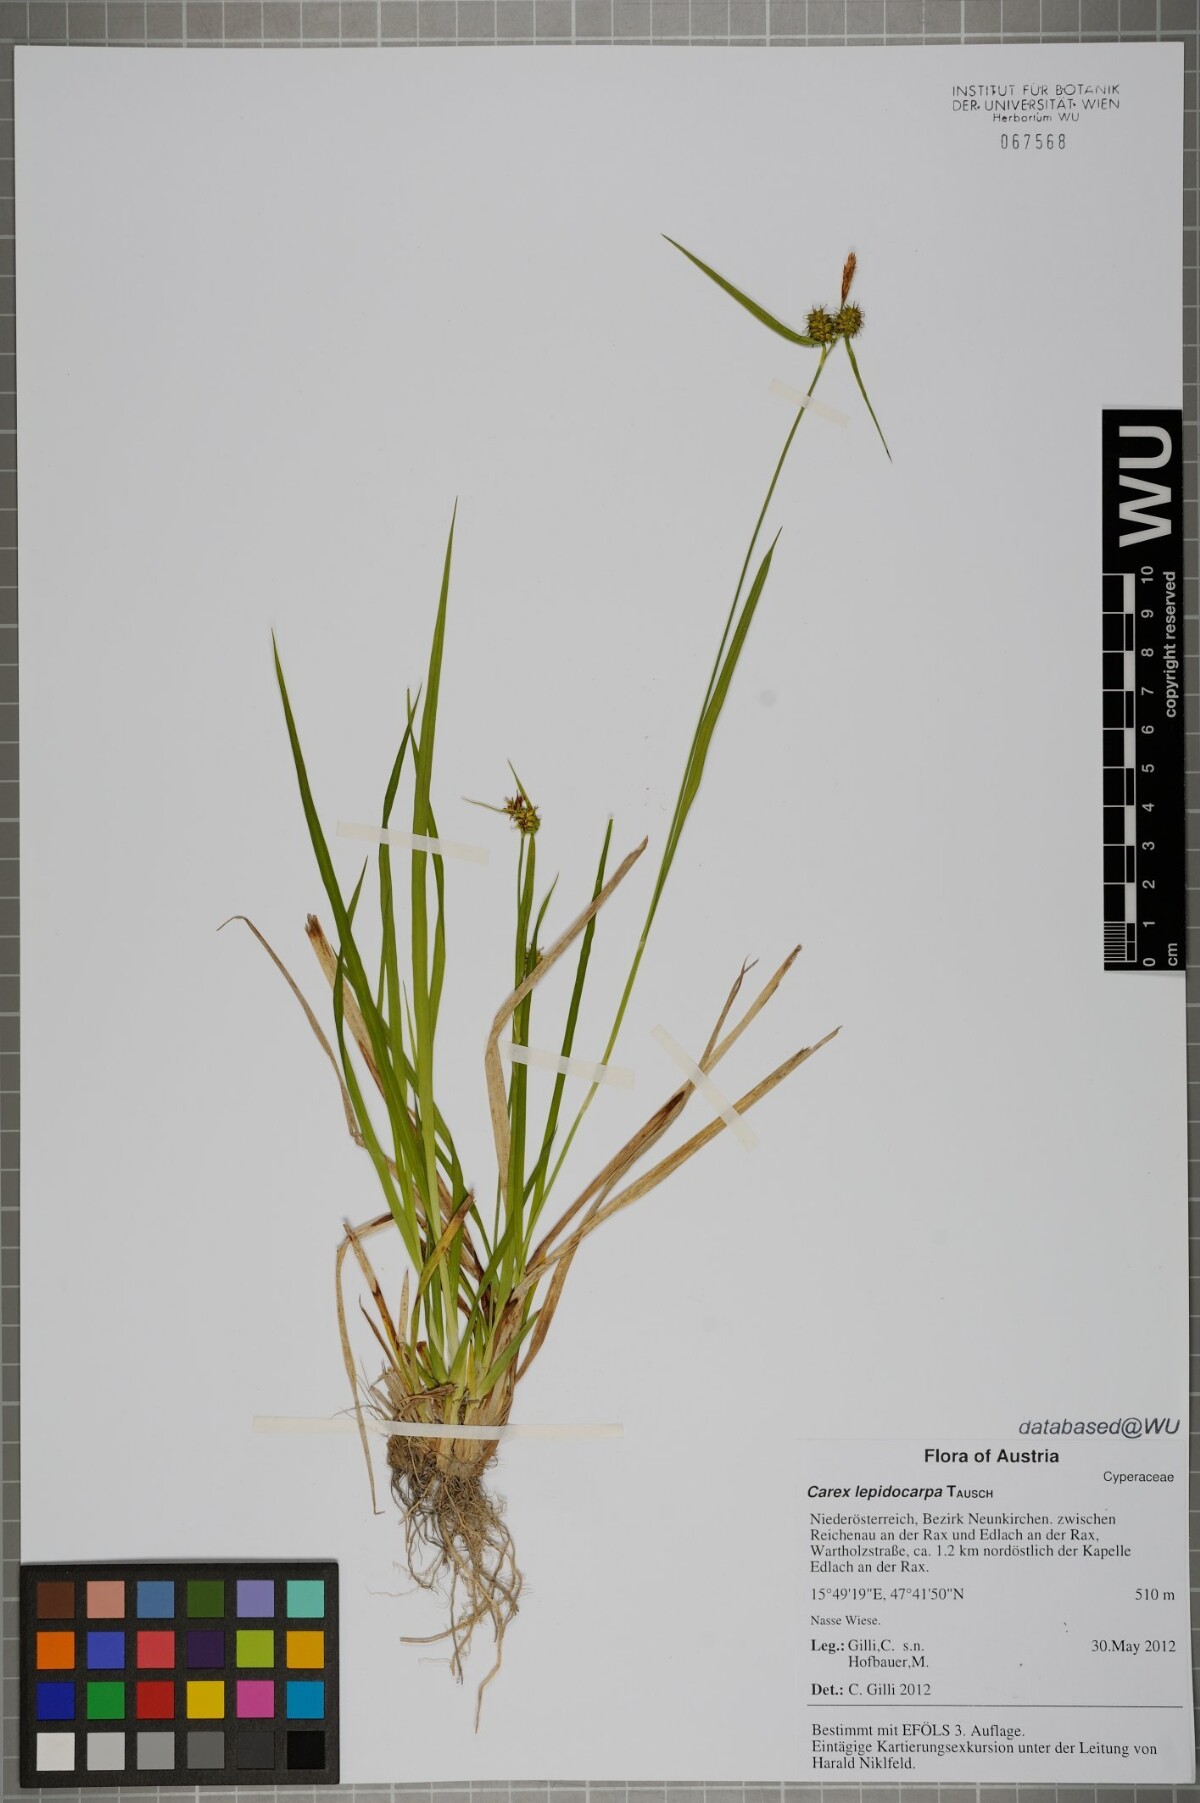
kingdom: Plantae
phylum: Tracheophyta
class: Liliopsida
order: Poales
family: Cyperaceae
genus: Carex
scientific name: Carex lepidocarpa
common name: Long-stalked yellow-sedge
